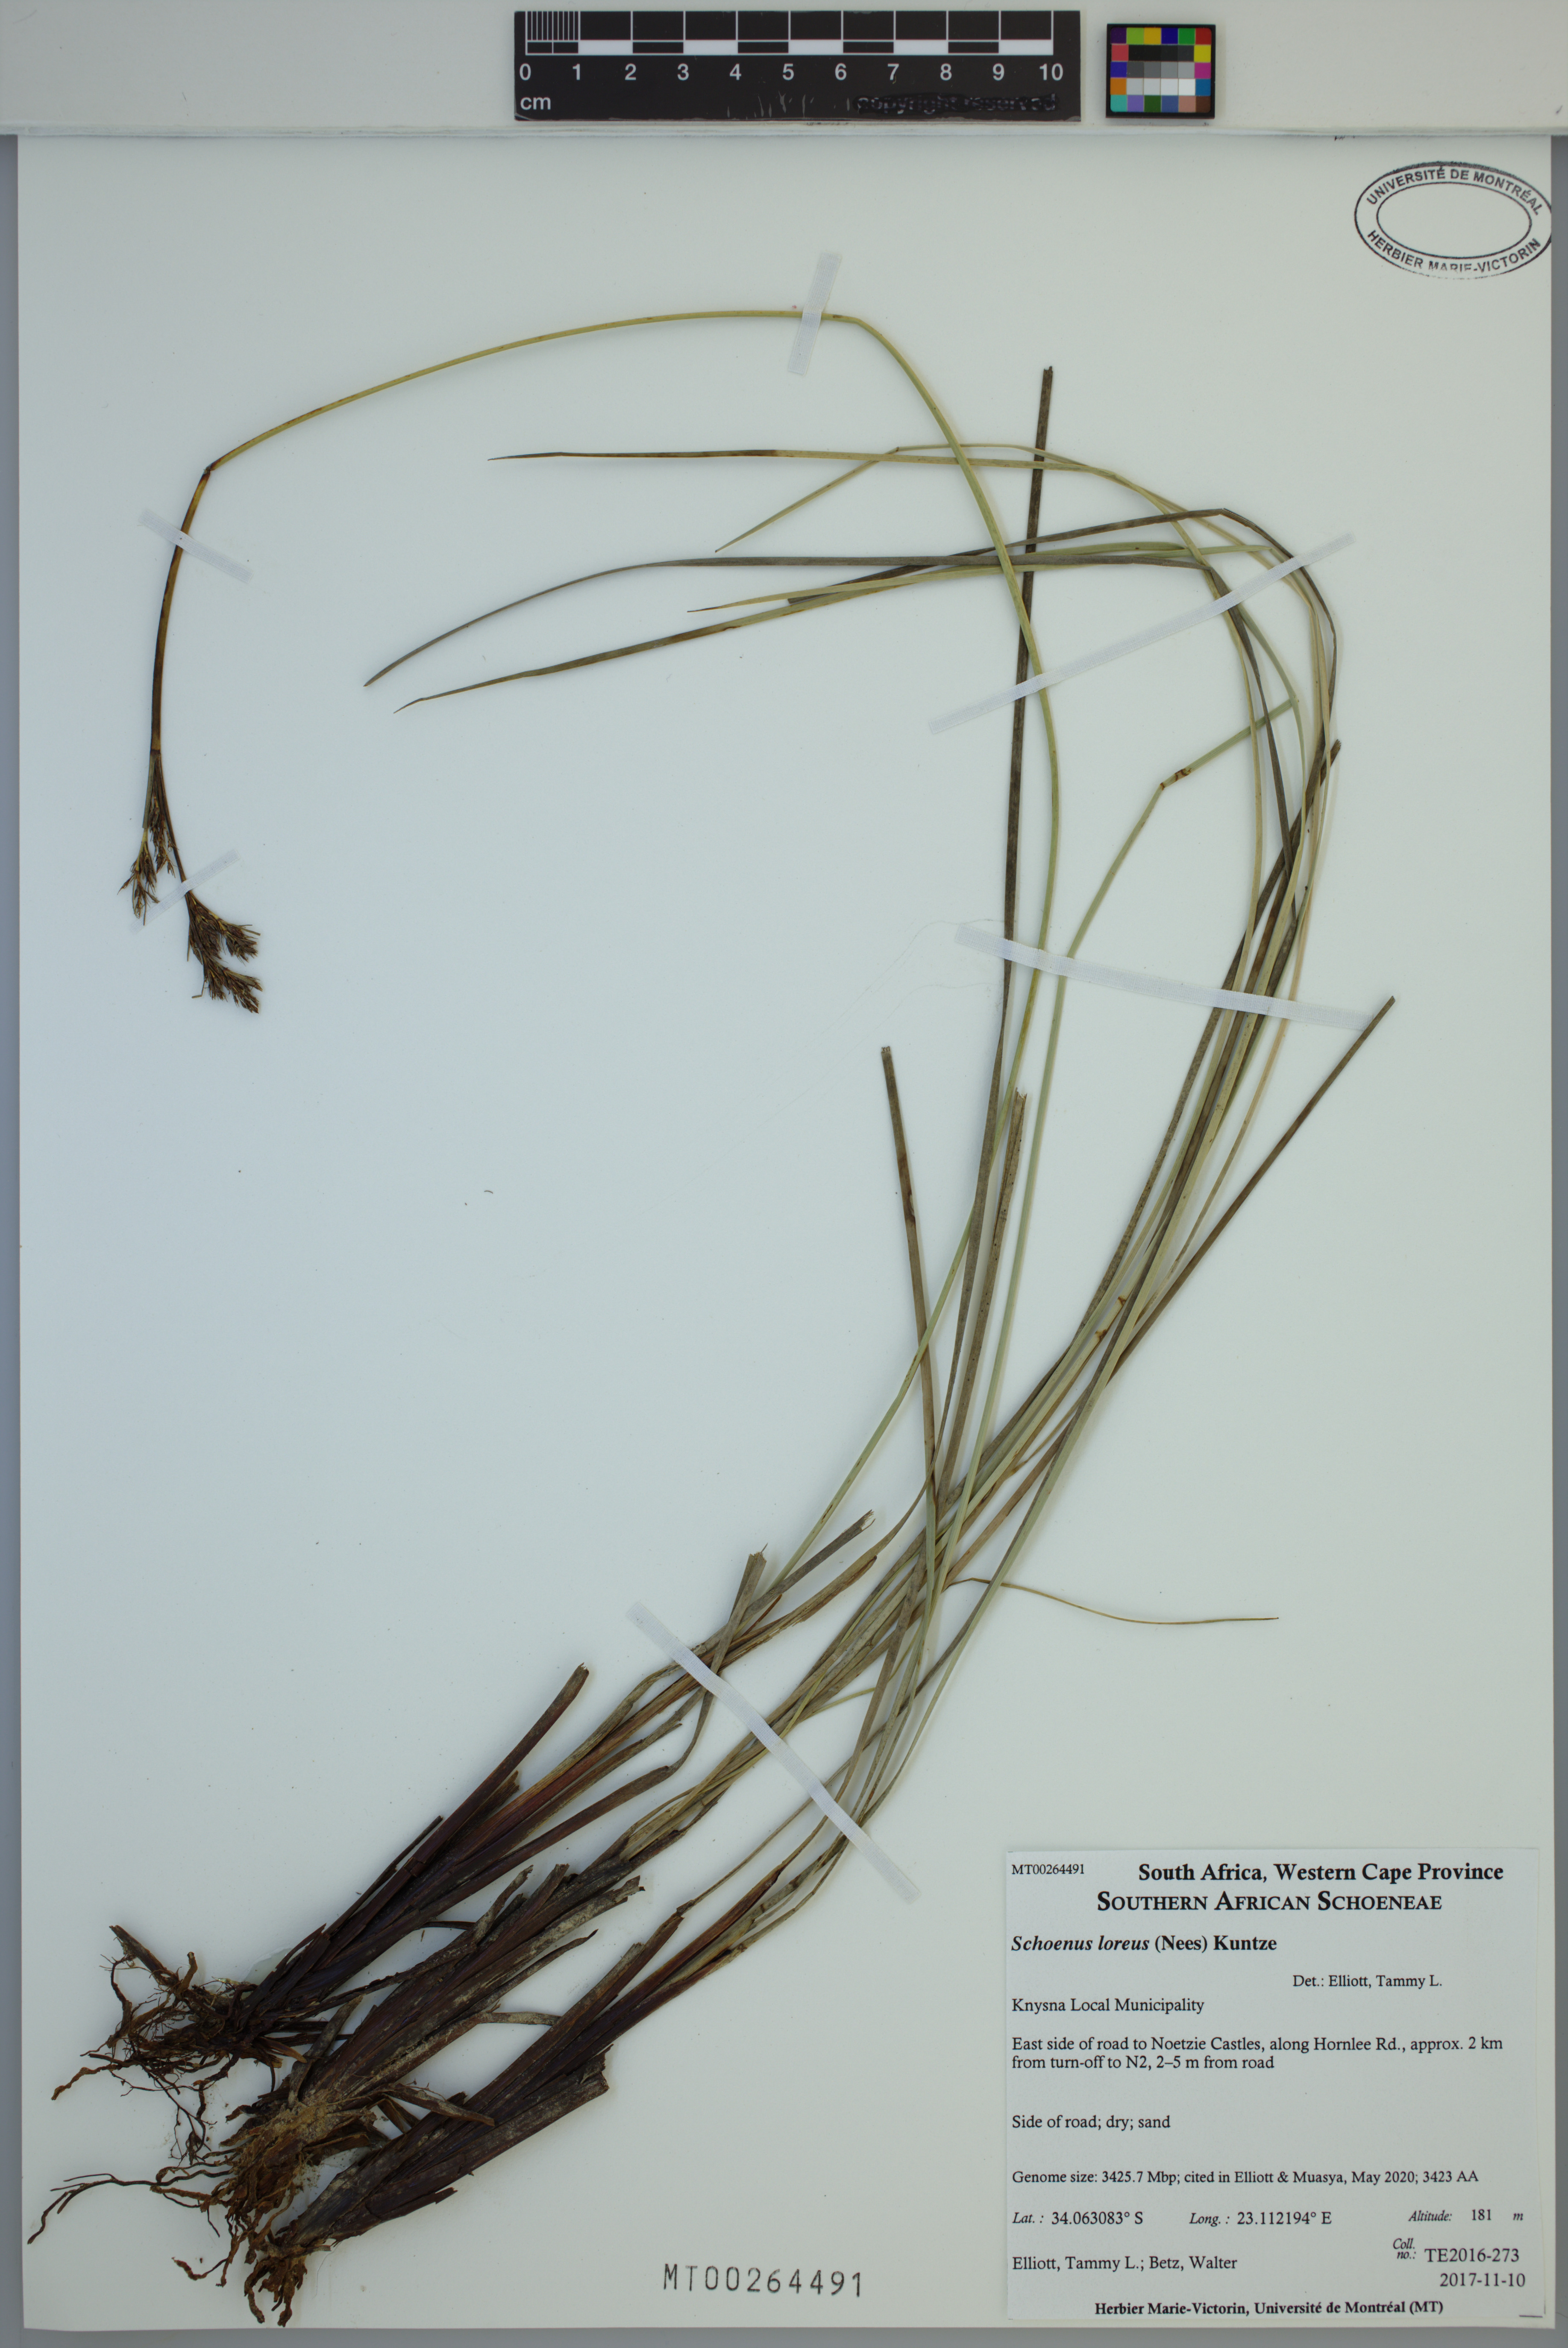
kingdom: Plantae
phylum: Tracheophyta
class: Liliopsida
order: Poales
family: Cyperaceae
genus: Schoenus
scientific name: Schoenus loreus
